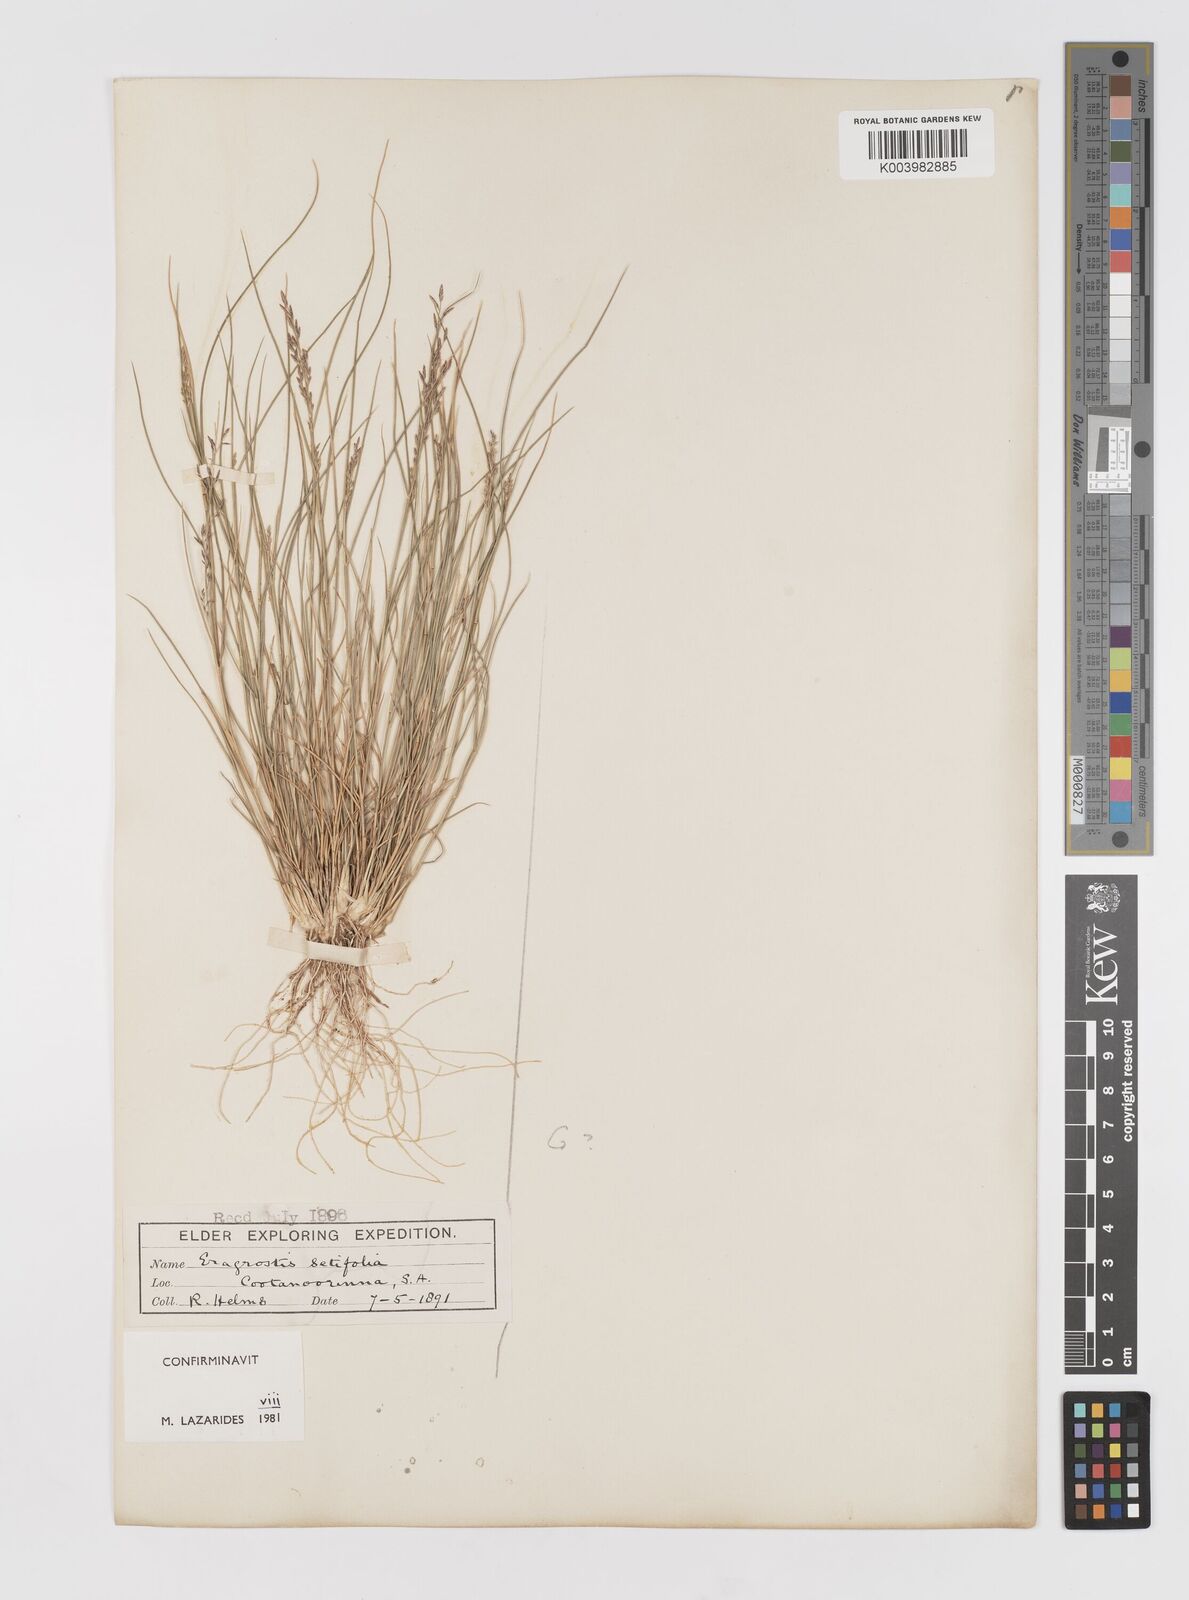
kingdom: Plantae
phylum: Tracheophyta
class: Liliopsida
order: Poales
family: Poaceae
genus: Eragrostis
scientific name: Eragrostis setifolia
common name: Bristleleaf lovegrass
